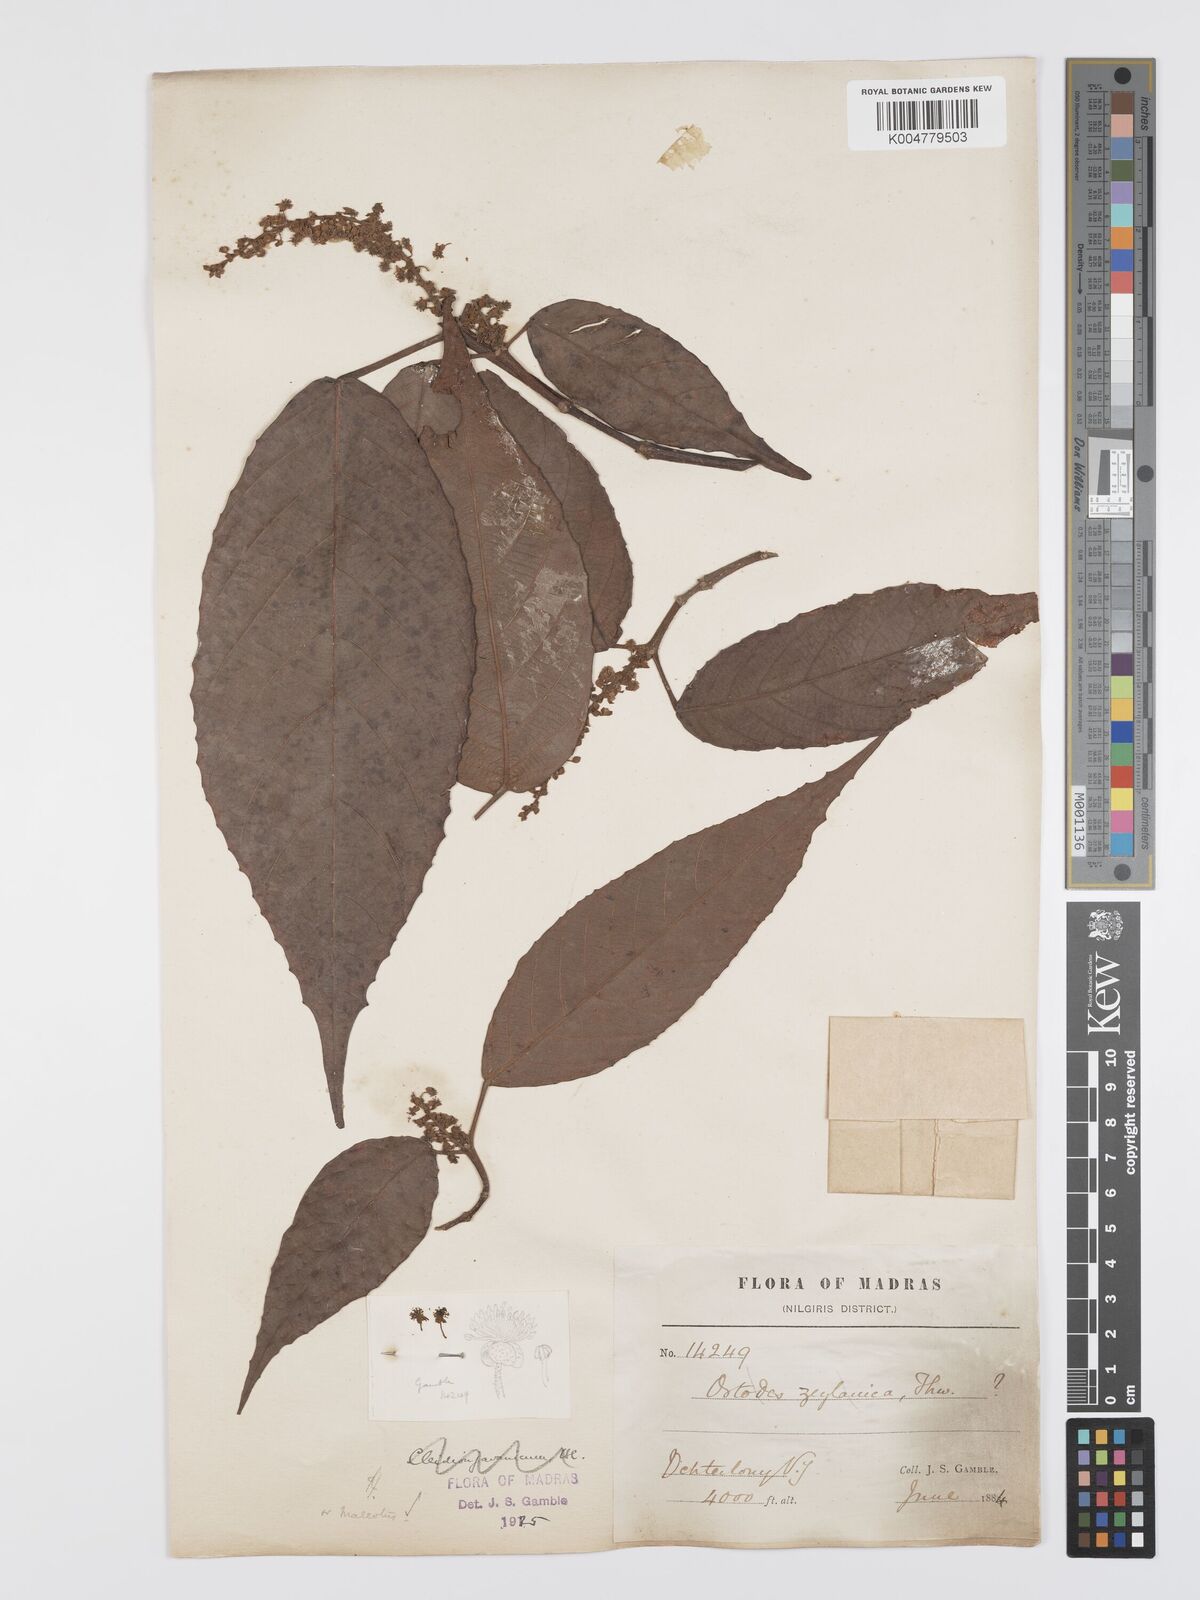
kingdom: Plantae
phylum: Tracheophyta
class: Magnoliopsida
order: Malpighiales
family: Euphorbiaceae
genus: Mallotus
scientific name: Mallotus resinosus
